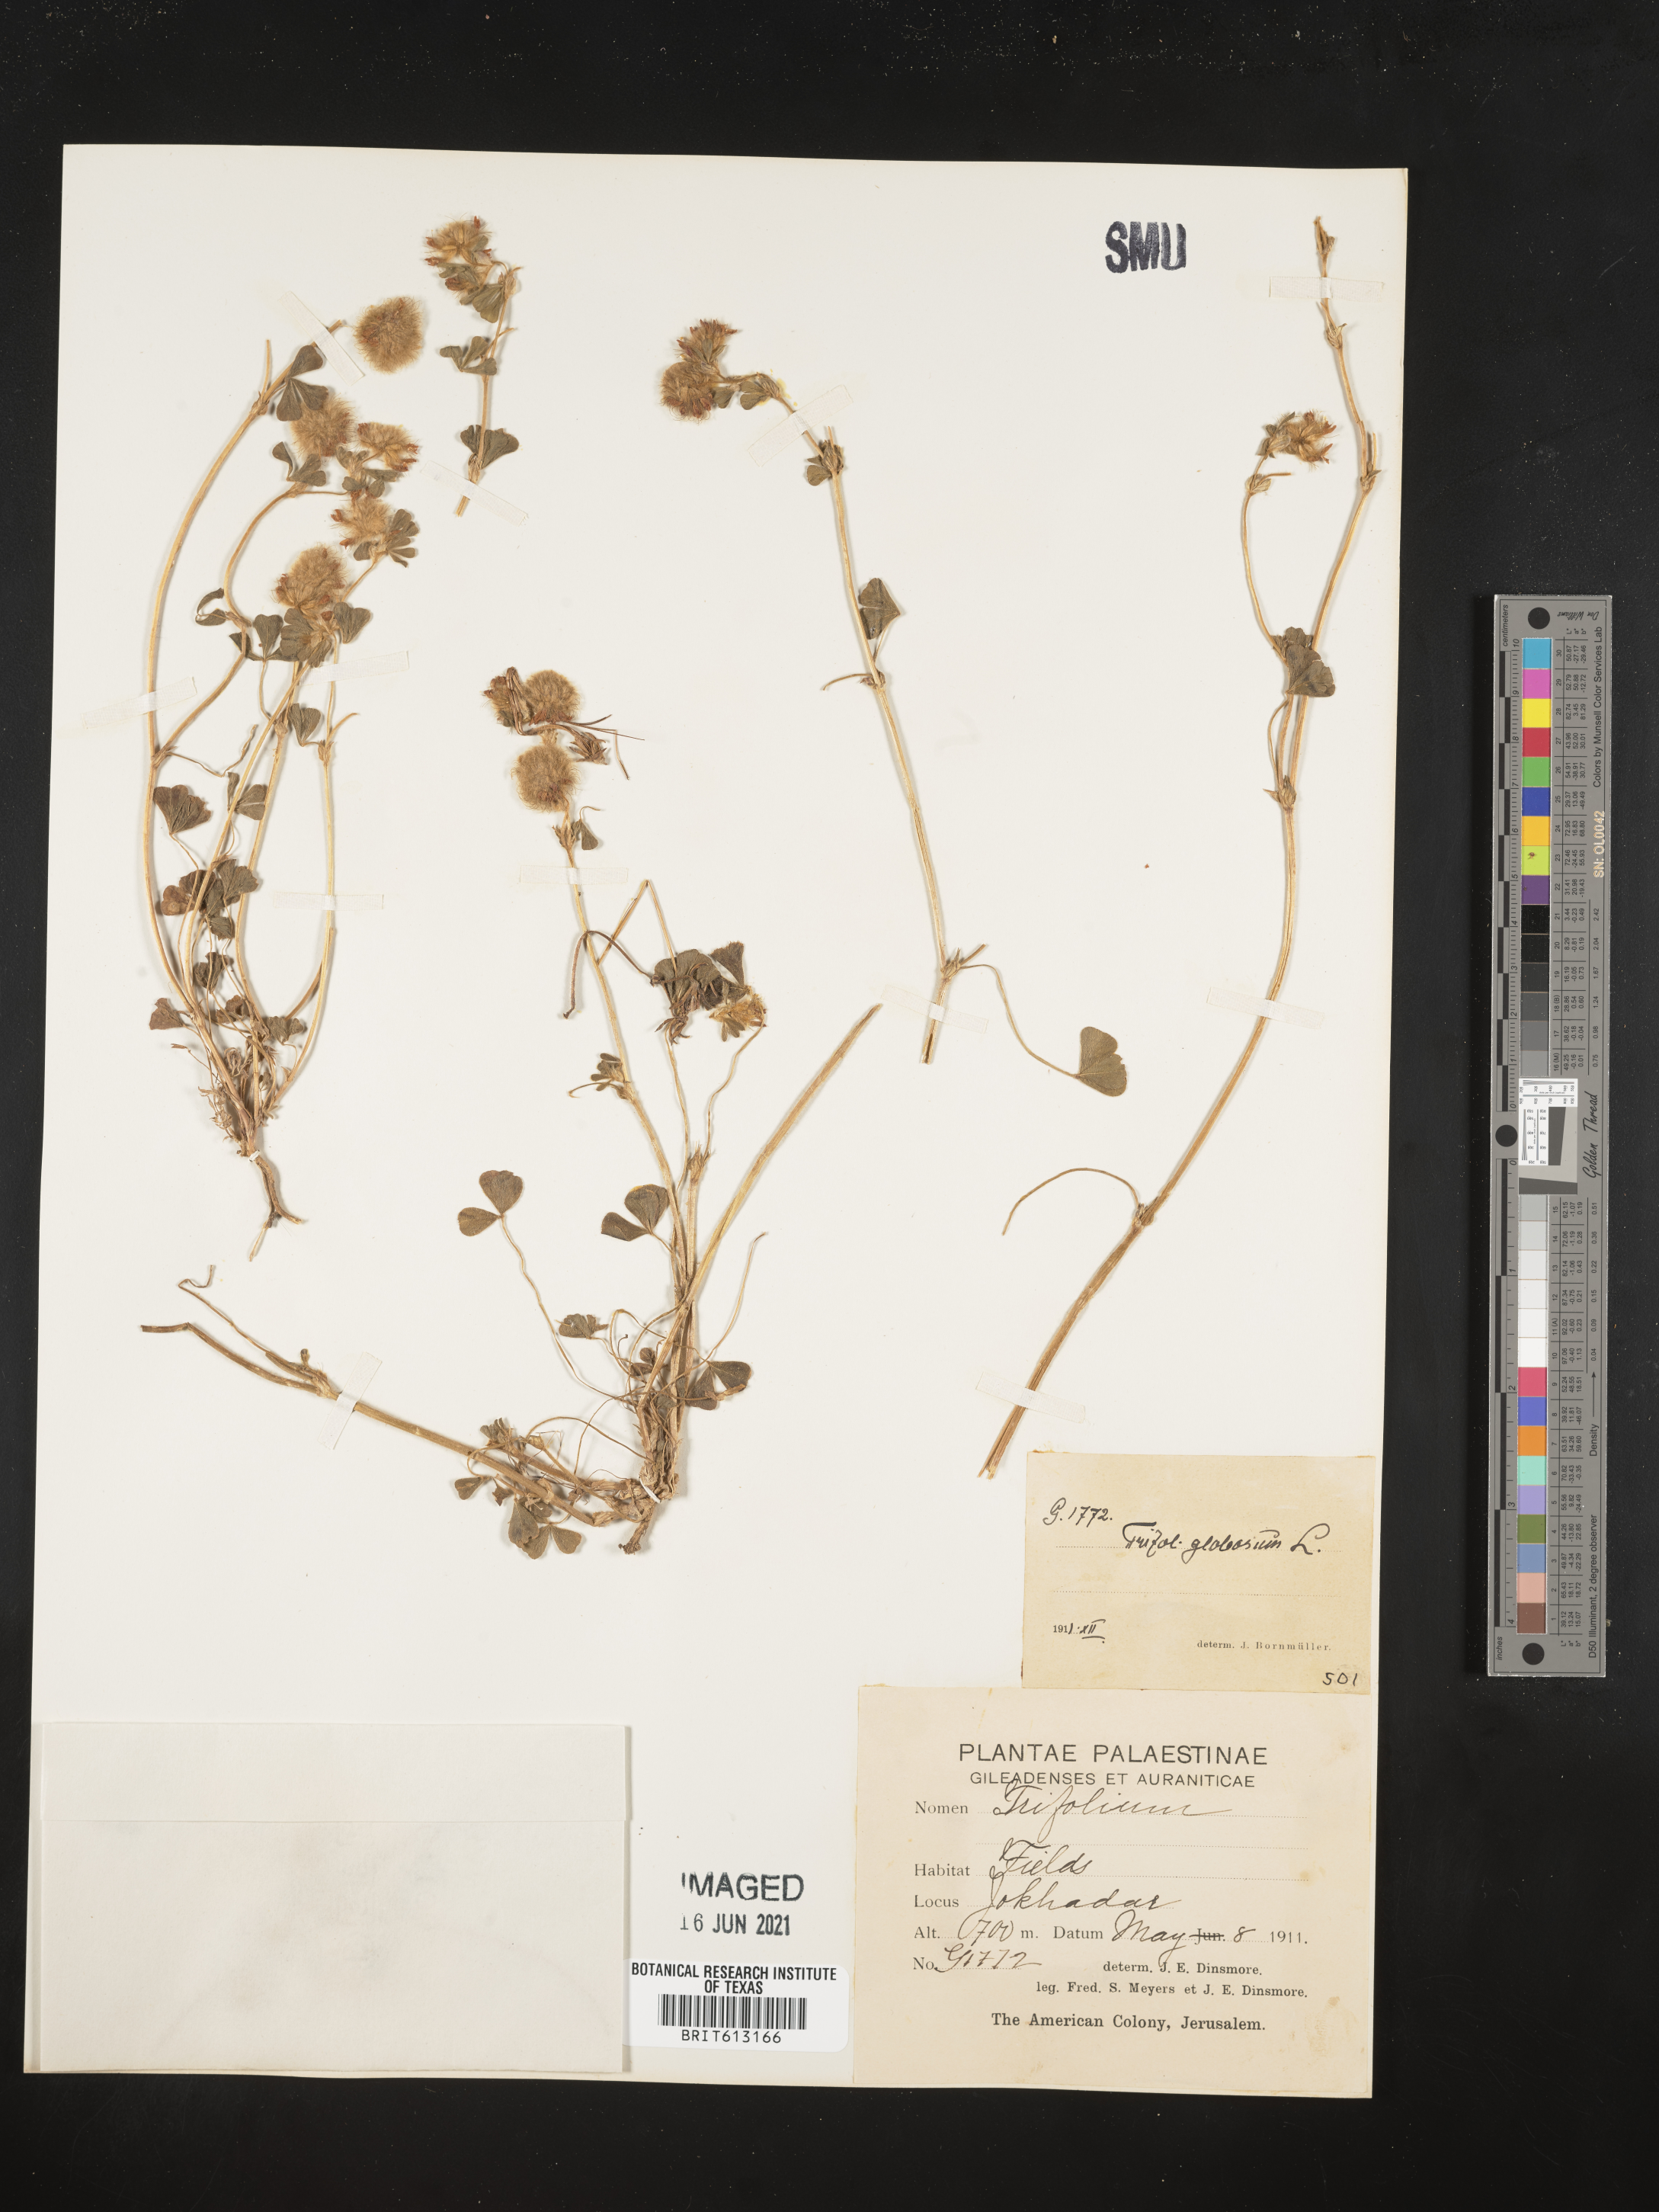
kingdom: Plantae
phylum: Tracheophyta
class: Magnoliopsida
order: Fabales
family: Fabaceae
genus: Trifolium
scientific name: Trifolium globosum
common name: Round-head clover
